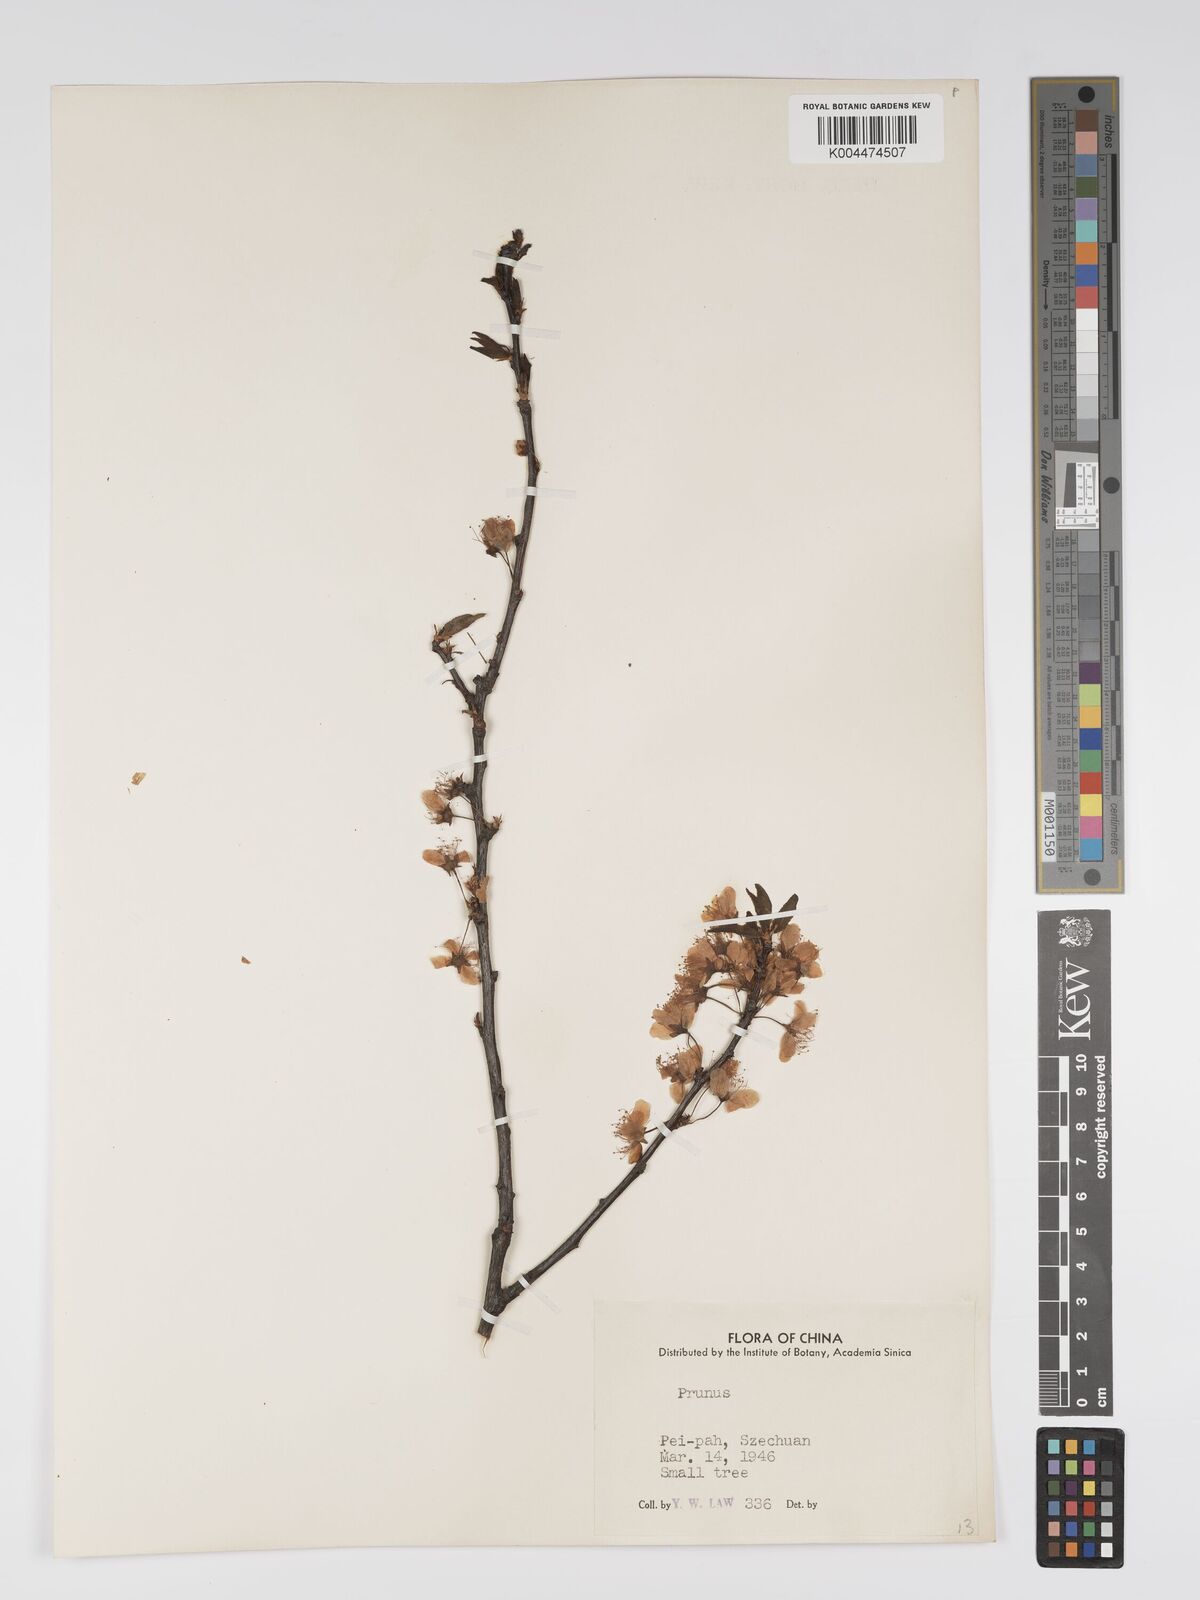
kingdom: Plantae
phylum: Tracheophyta
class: Magnoliopsida
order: Rosales
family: Rosaceae
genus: Prunus
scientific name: Prunus
